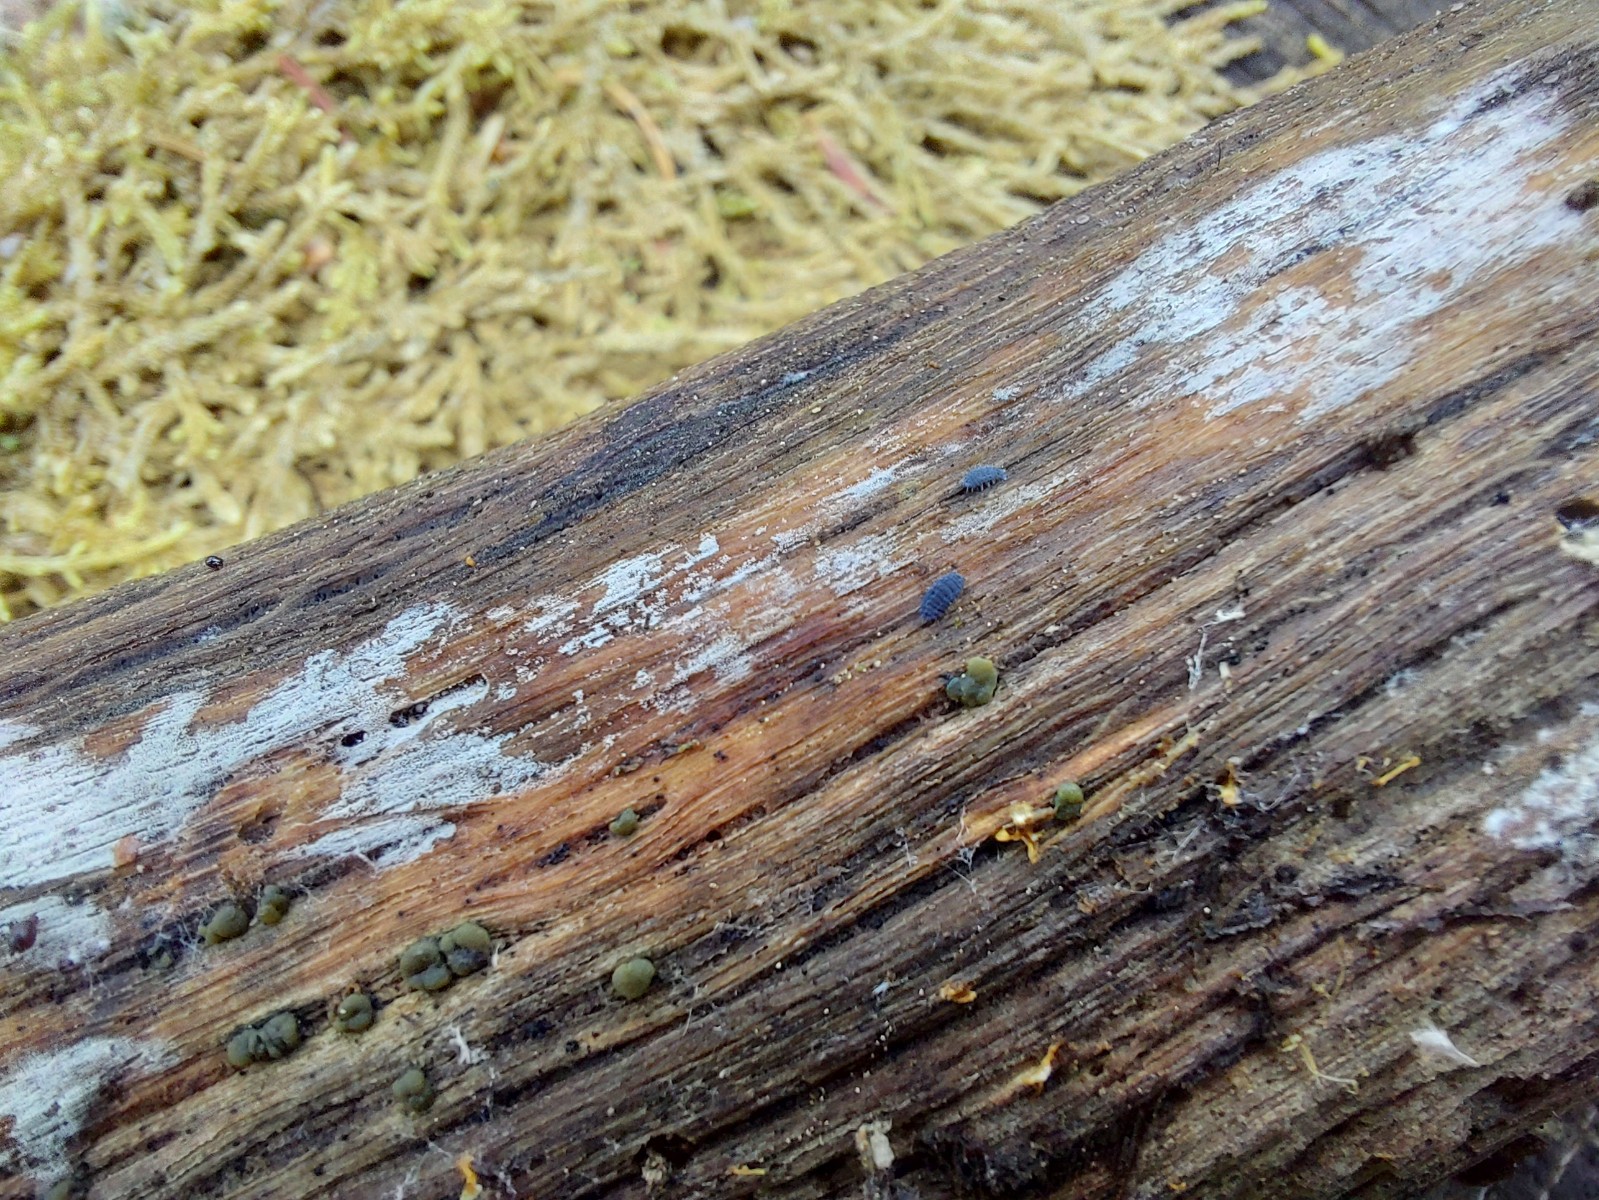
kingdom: Fungi
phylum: Ascomycota
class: Sordariomycetes
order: Hypocreales
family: Hypocreaceae
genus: Trichoderma
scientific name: Trichoderma aureoviride
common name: æggegul kødkerne
